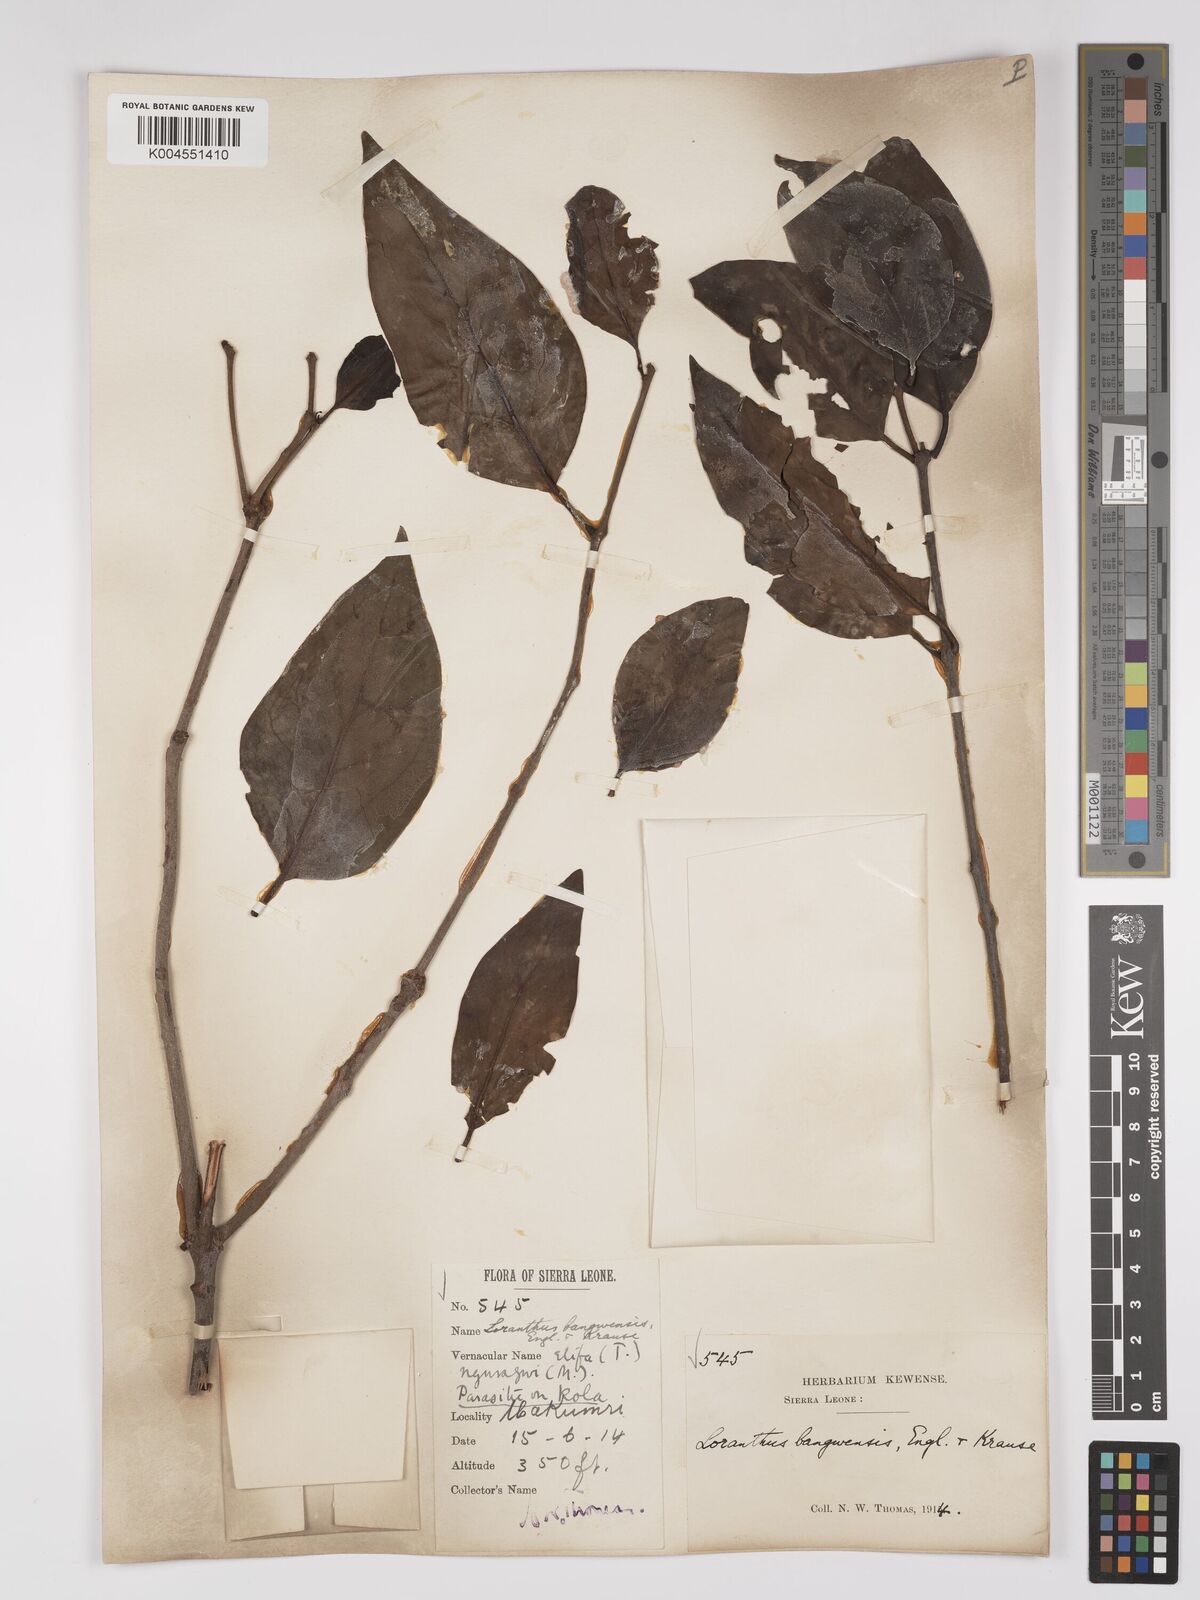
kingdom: Plantae
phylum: Tracheophyta
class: Magnoliopsida
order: Santalales
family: Loranthaceae
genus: Tapinanthus
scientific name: Tapinanthus bangwensis
